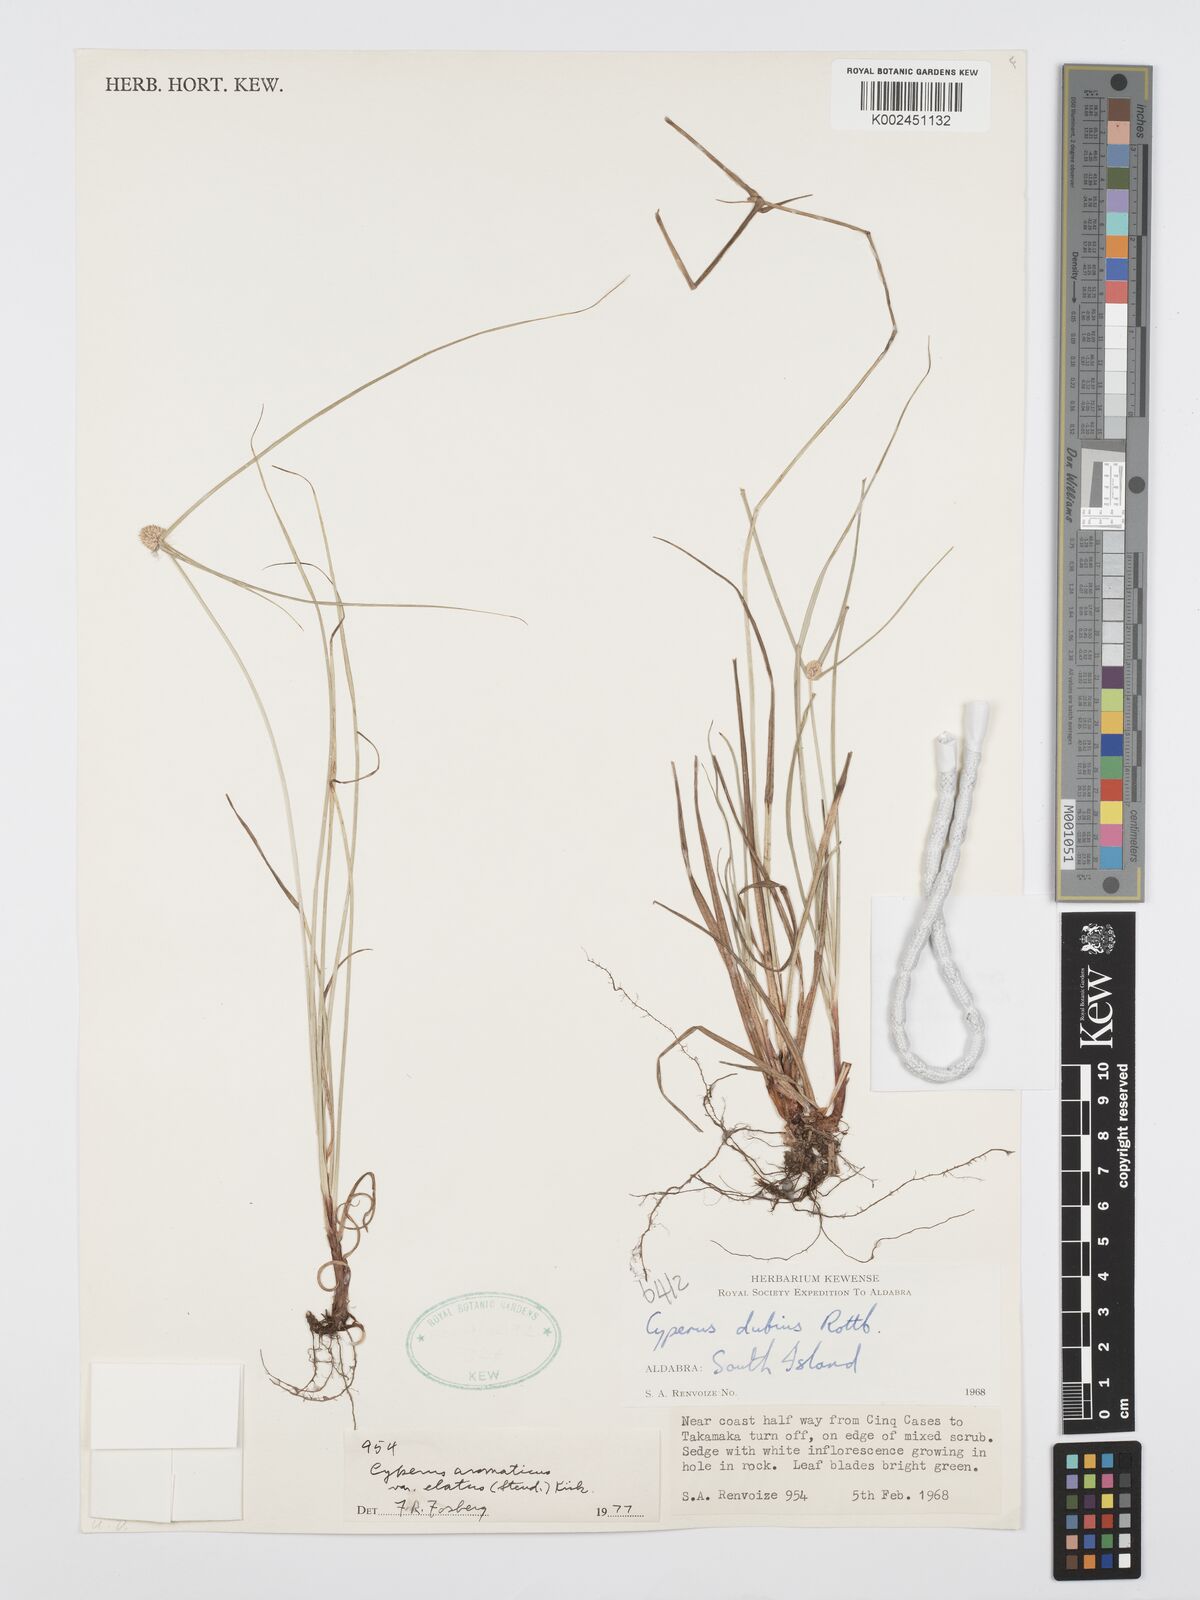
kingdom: Plantae
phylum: Tracheophyta
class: Liliopsida
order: Poales
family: Cyperaceae
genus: Cyperus
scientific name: Cyperus bigibbosa
